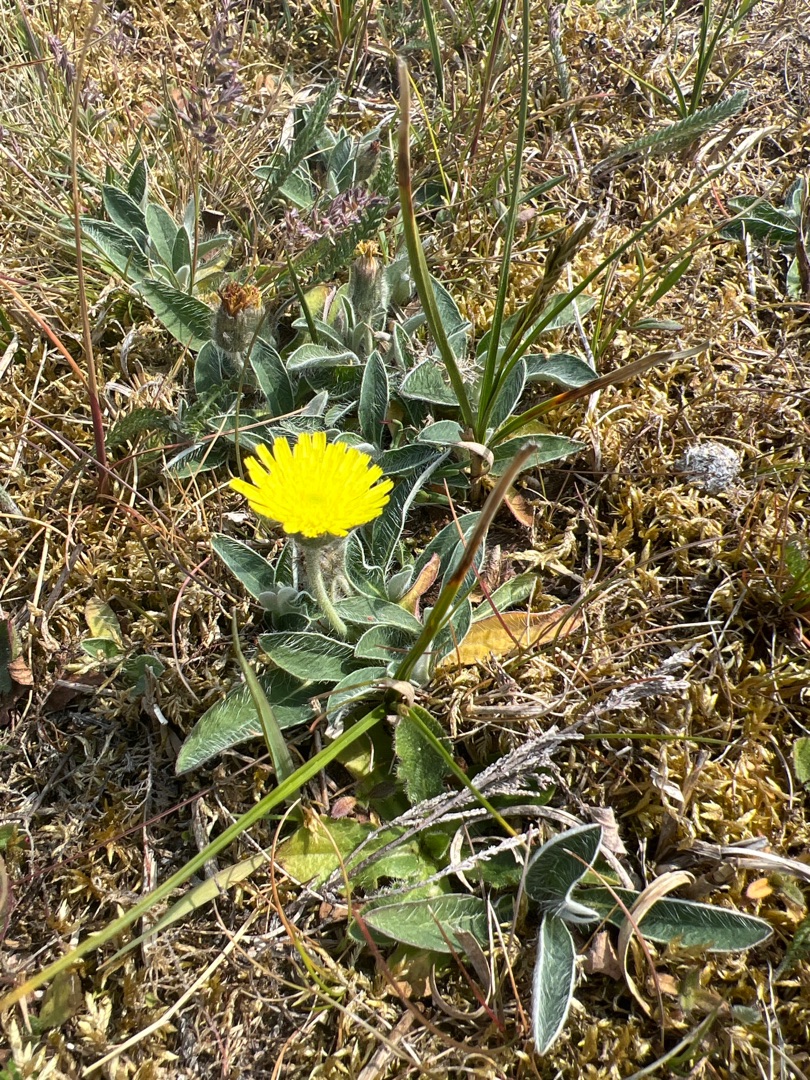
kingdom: Plantae
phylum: Tracheophyta
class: Magnoliopsida
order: Asterales
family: Asteraceae
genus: Pilosella
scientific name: Pilosella officinarum
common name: Håret høgeurt
